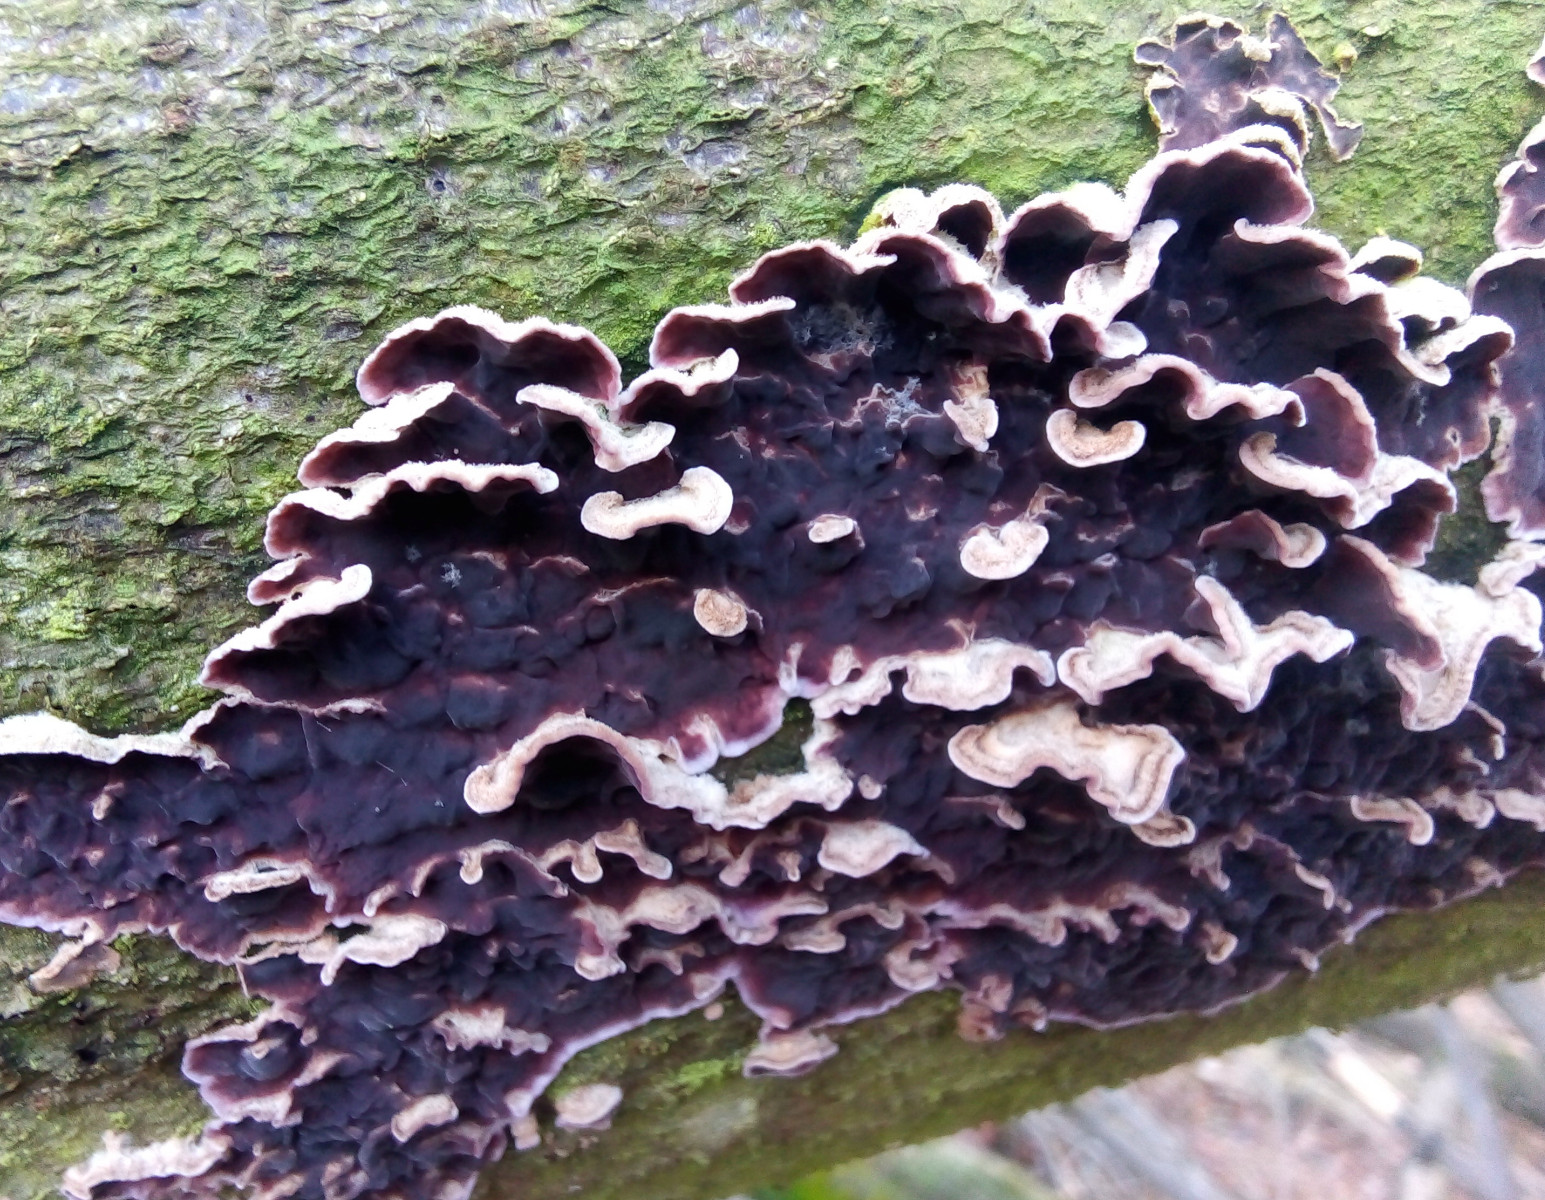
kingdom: Fungi
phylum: Basidiomycota
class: Agaricomycetes
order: Agaricales
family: Cyphellaceae
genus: Chondrostereum
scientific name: Chondrostereum purpureum
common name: purpurlædersvamp
